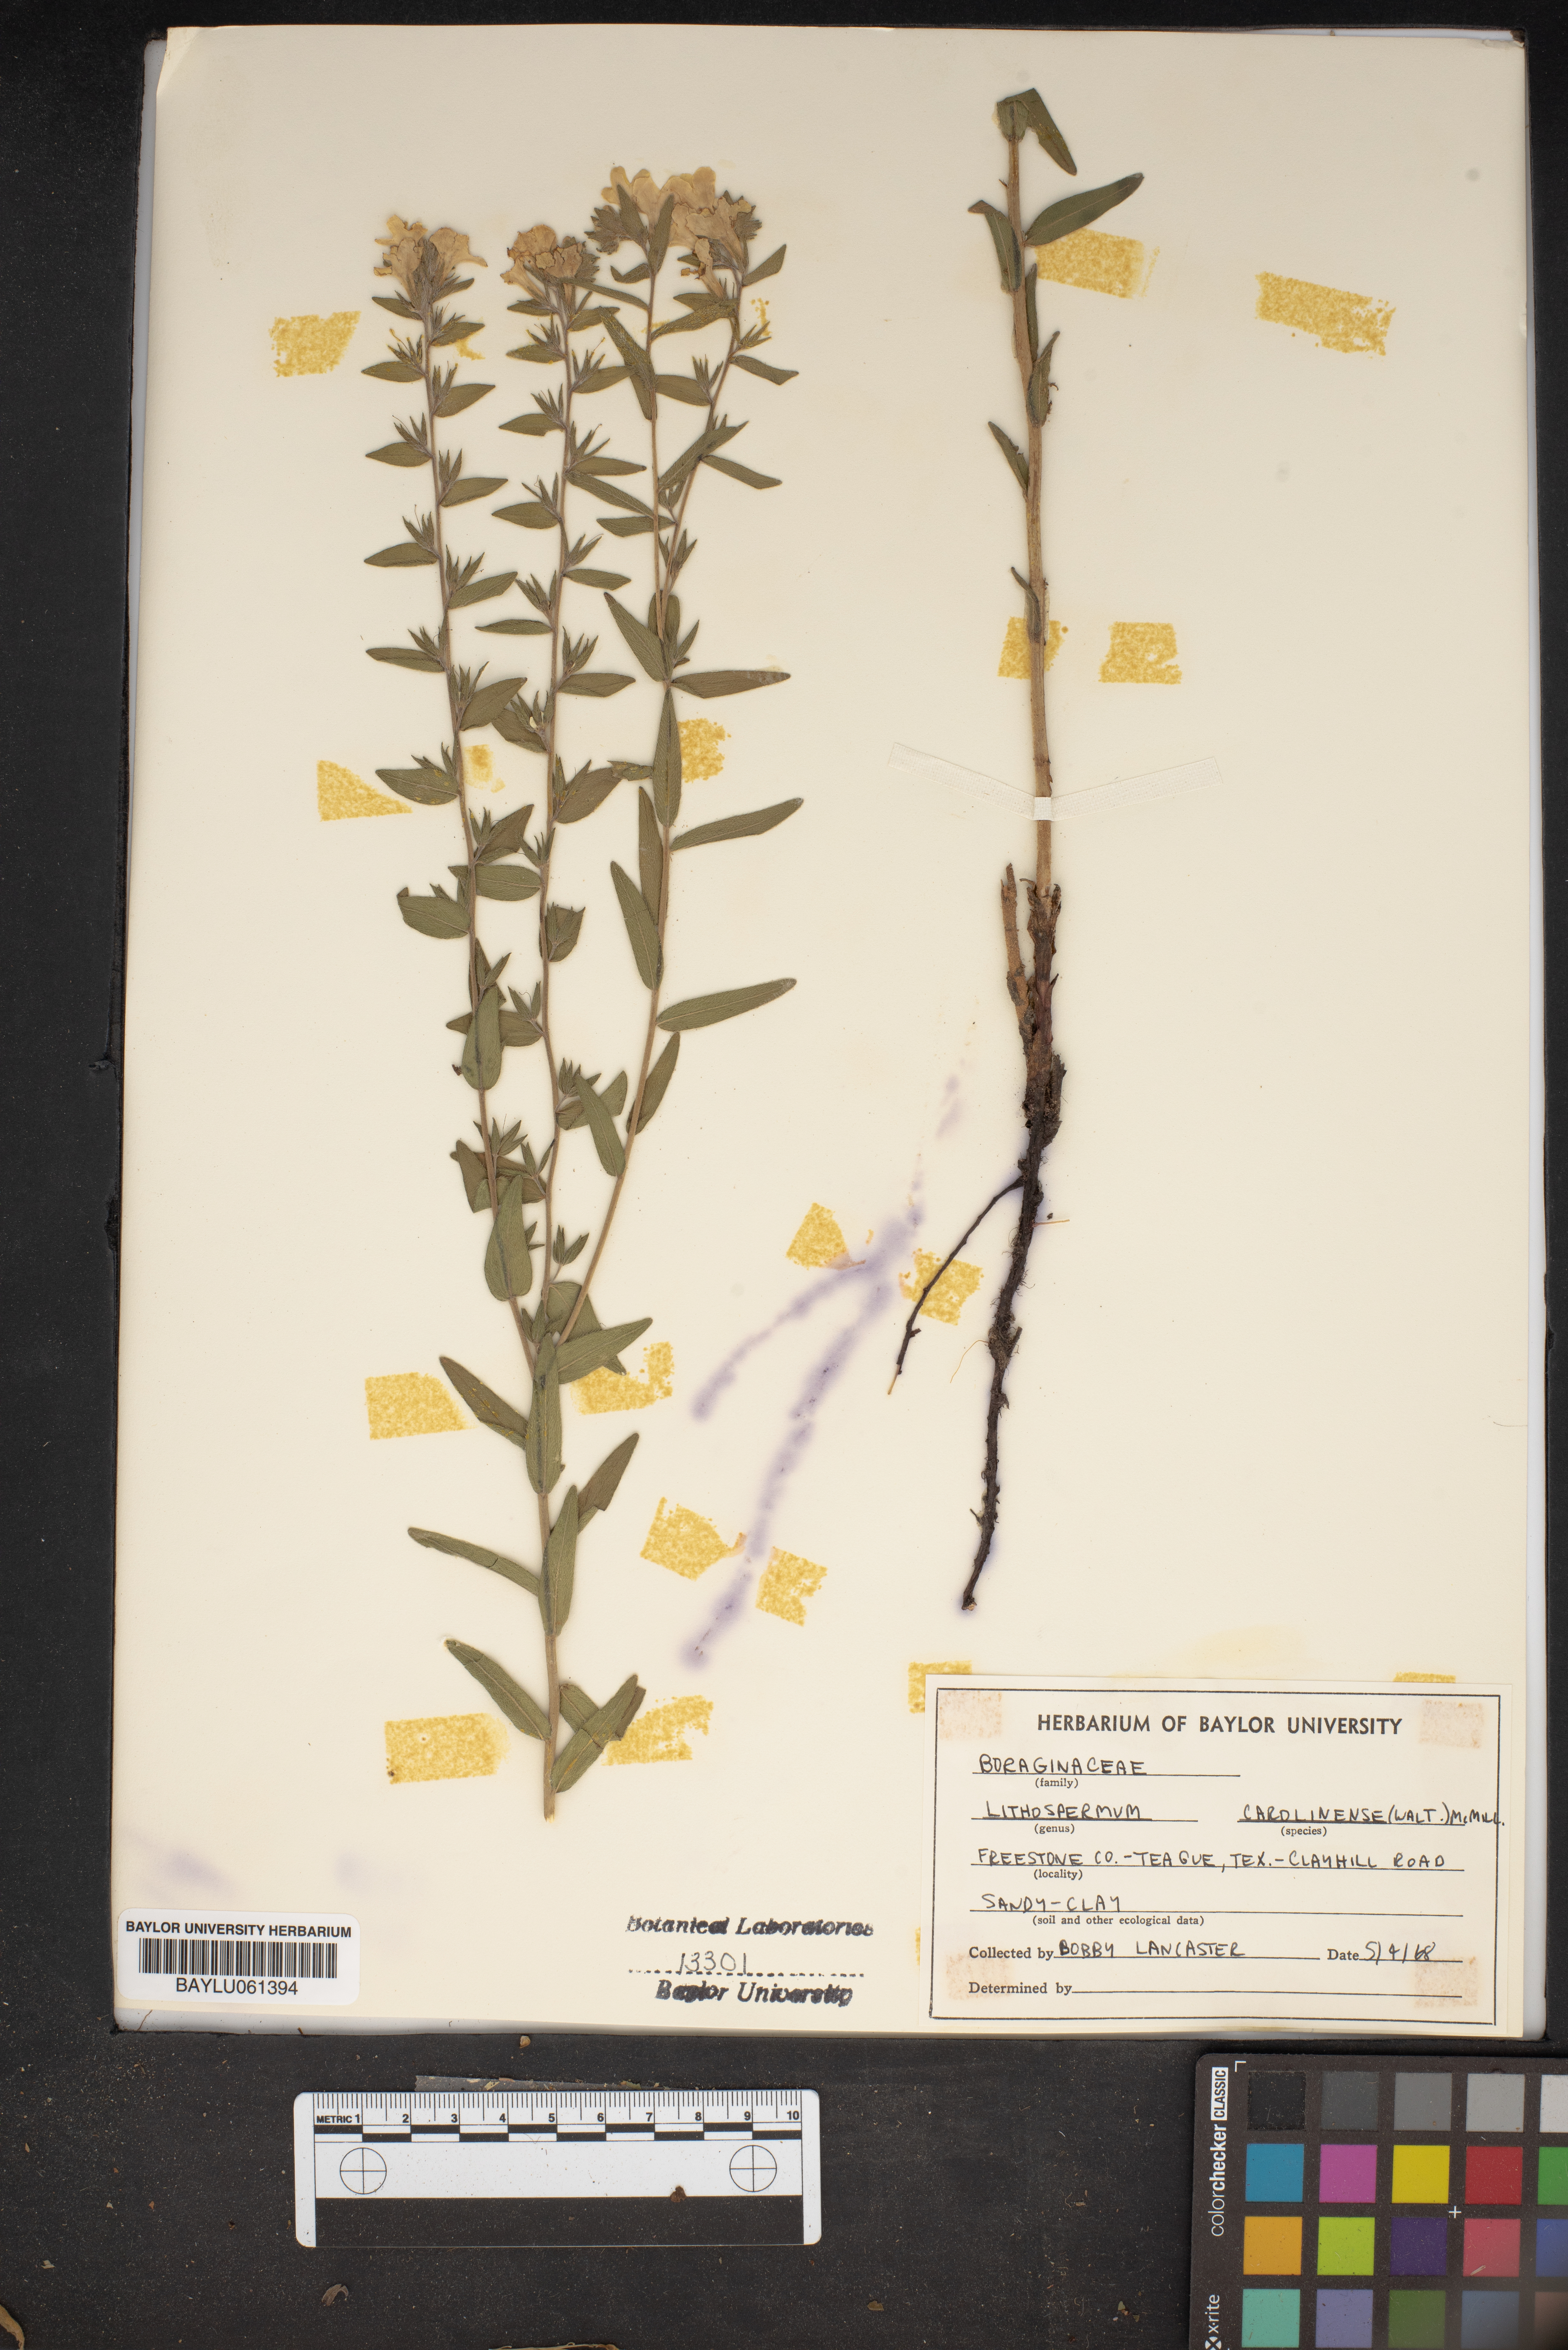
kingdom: Plantae
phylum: Tracheophyta
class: Magnoliopsida
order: Boraginales
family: Boraginaceae
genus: Lithospermum
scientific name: Lithospermum caroliniense
